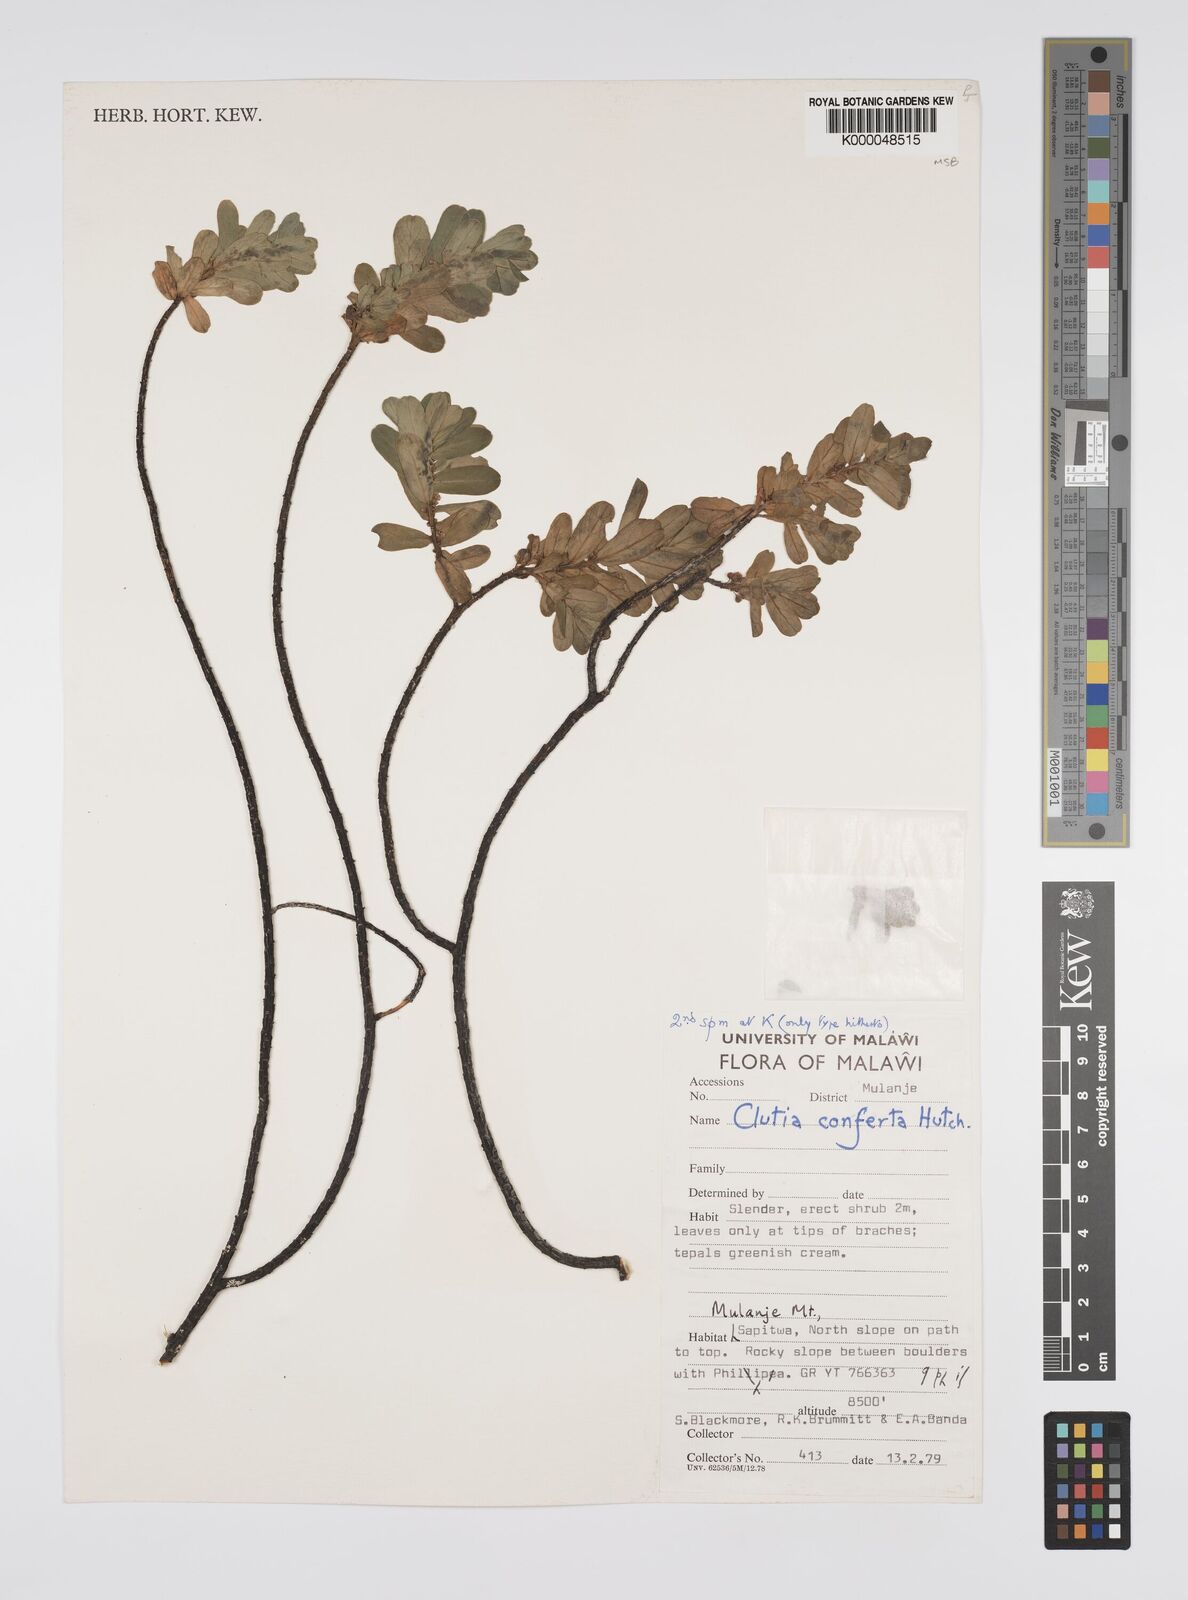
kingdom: Plantae
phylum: Tracheophyta
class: Magnoliopsida
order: Malpighiales
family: Peraceae
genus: Clutia
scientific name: Clutia conferta
